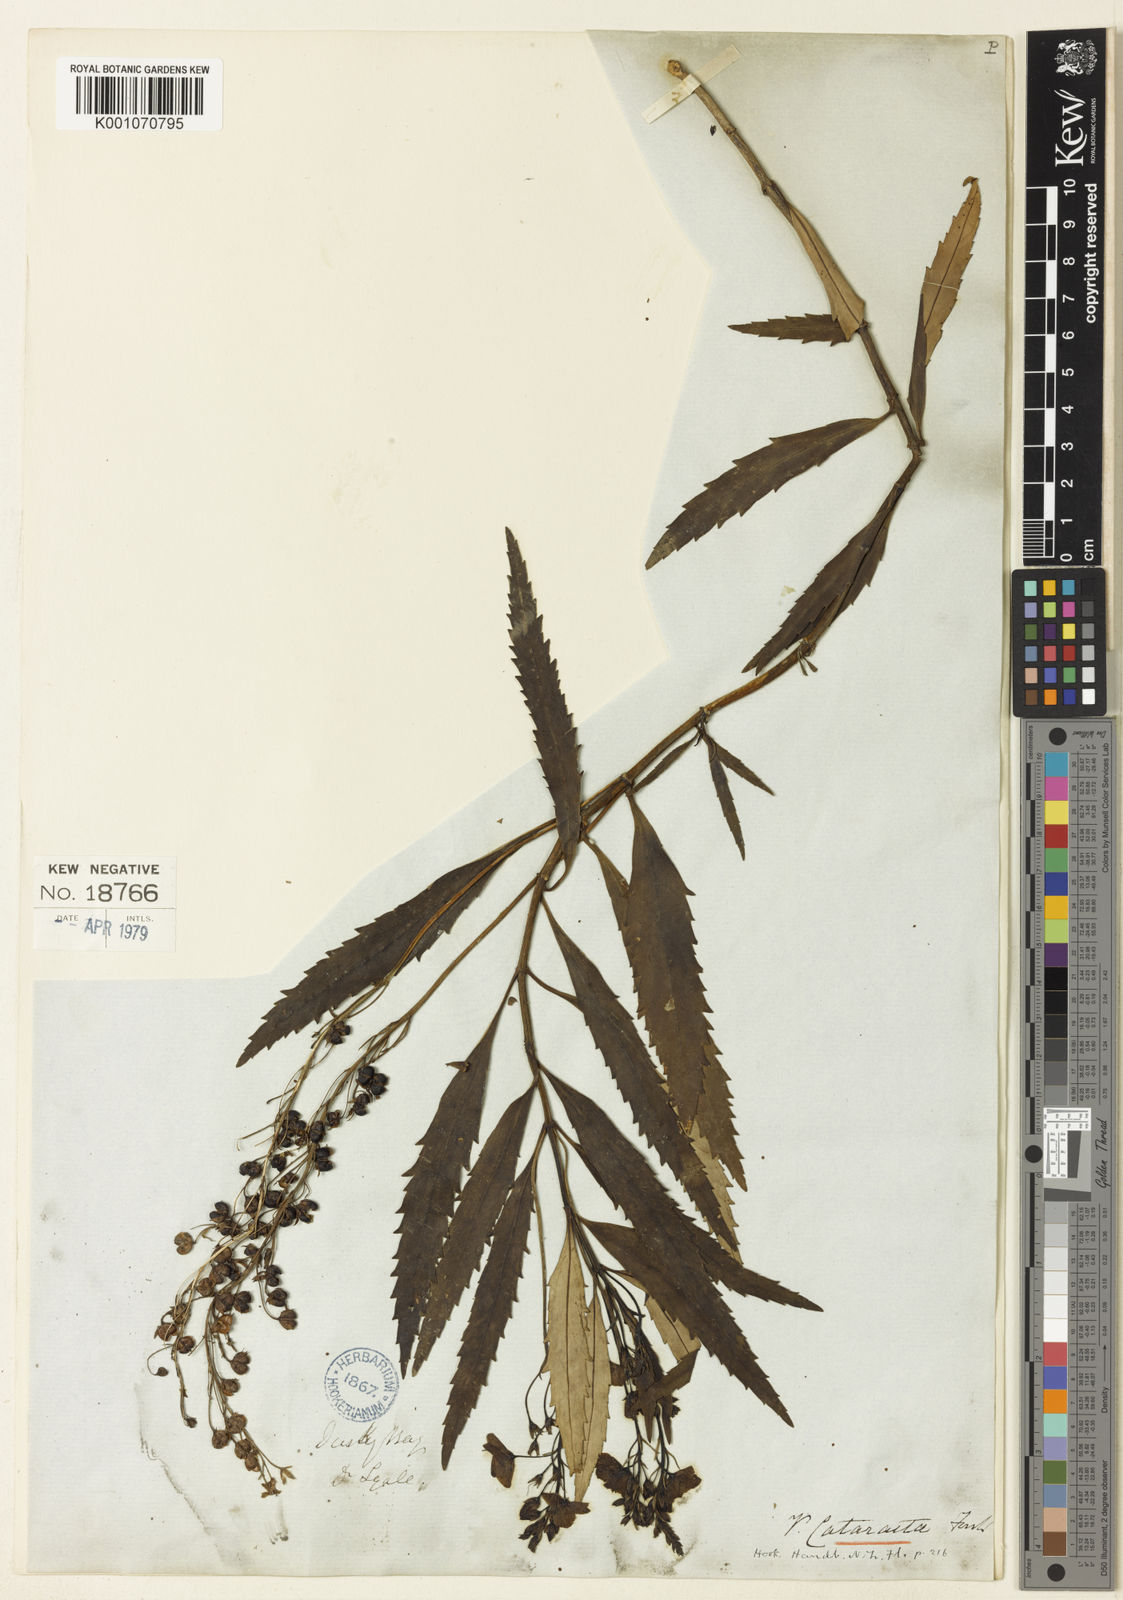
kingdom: Plantae
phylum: Tracheophyta
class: Magnoliopsida
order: Lamiales
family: Plantaginaceae
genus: Veronica
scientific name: Veronica catarractae
